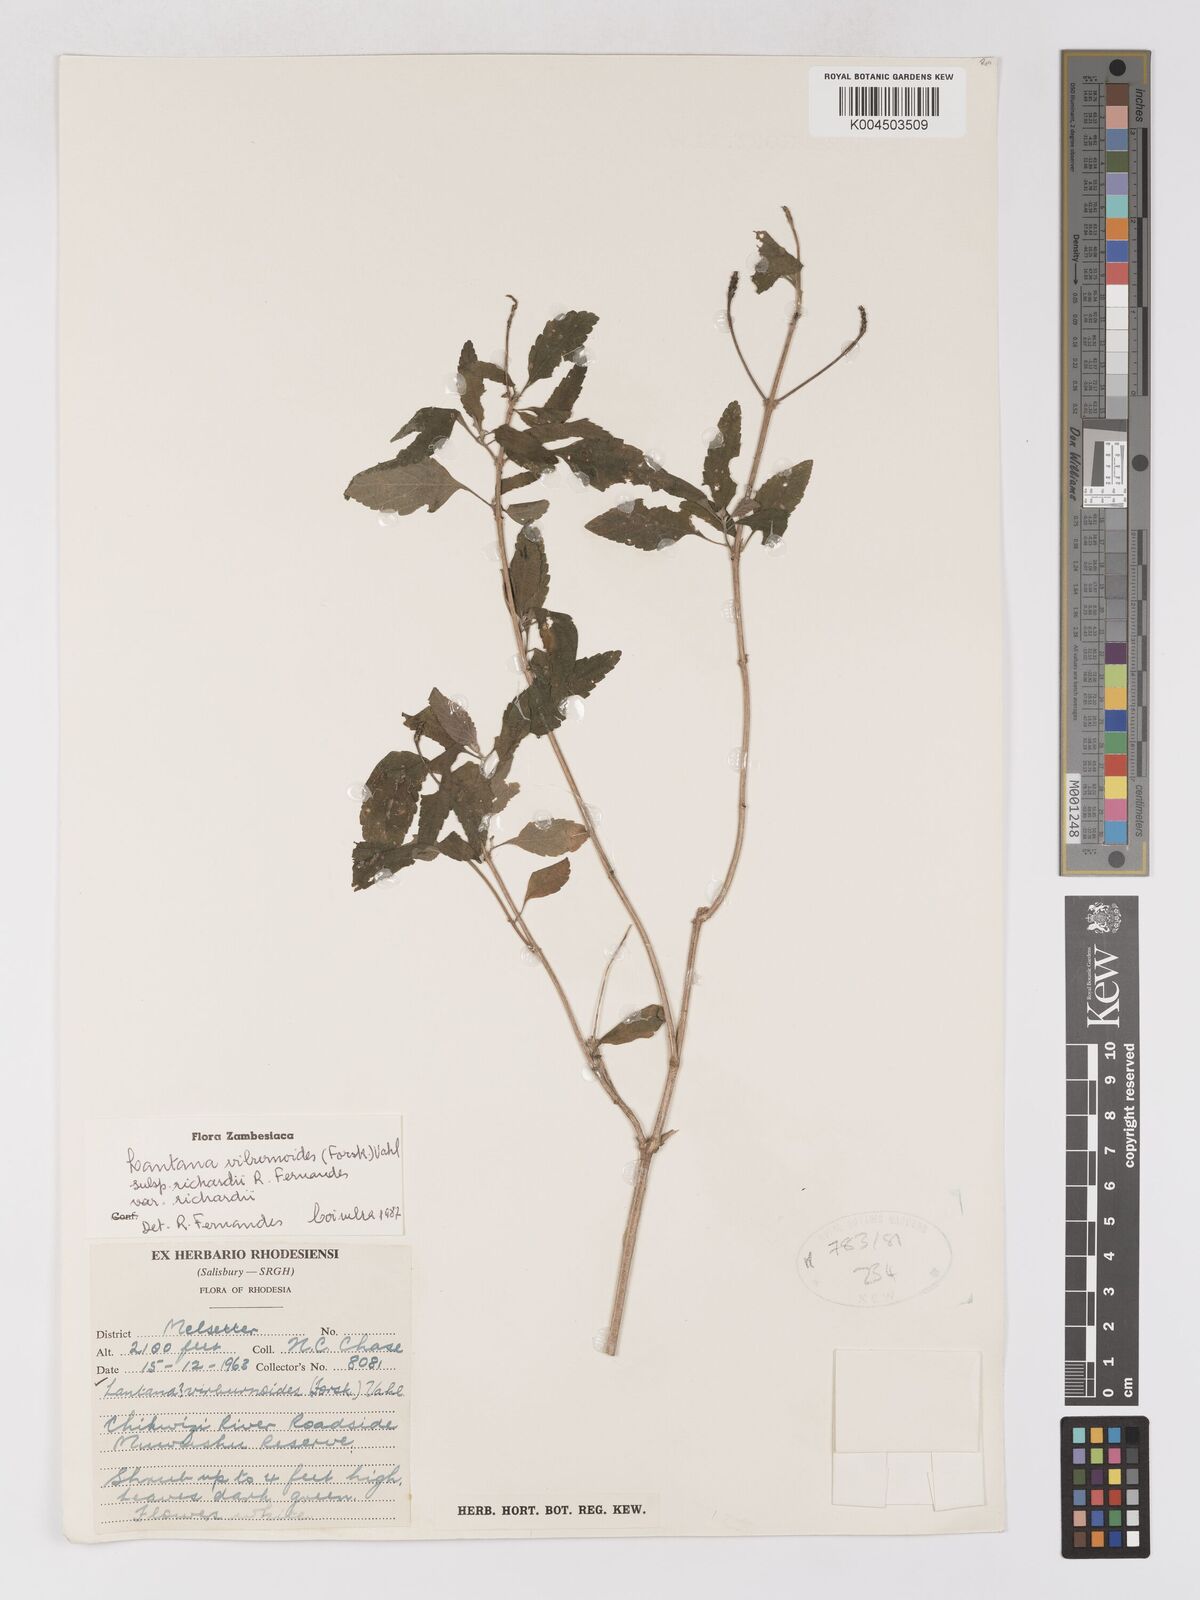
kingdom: Plantae
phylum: Tracheophyta
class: Magnoliopsida
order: Lamiales
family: Verbenaceae
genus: Lantana
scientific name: Lantana
